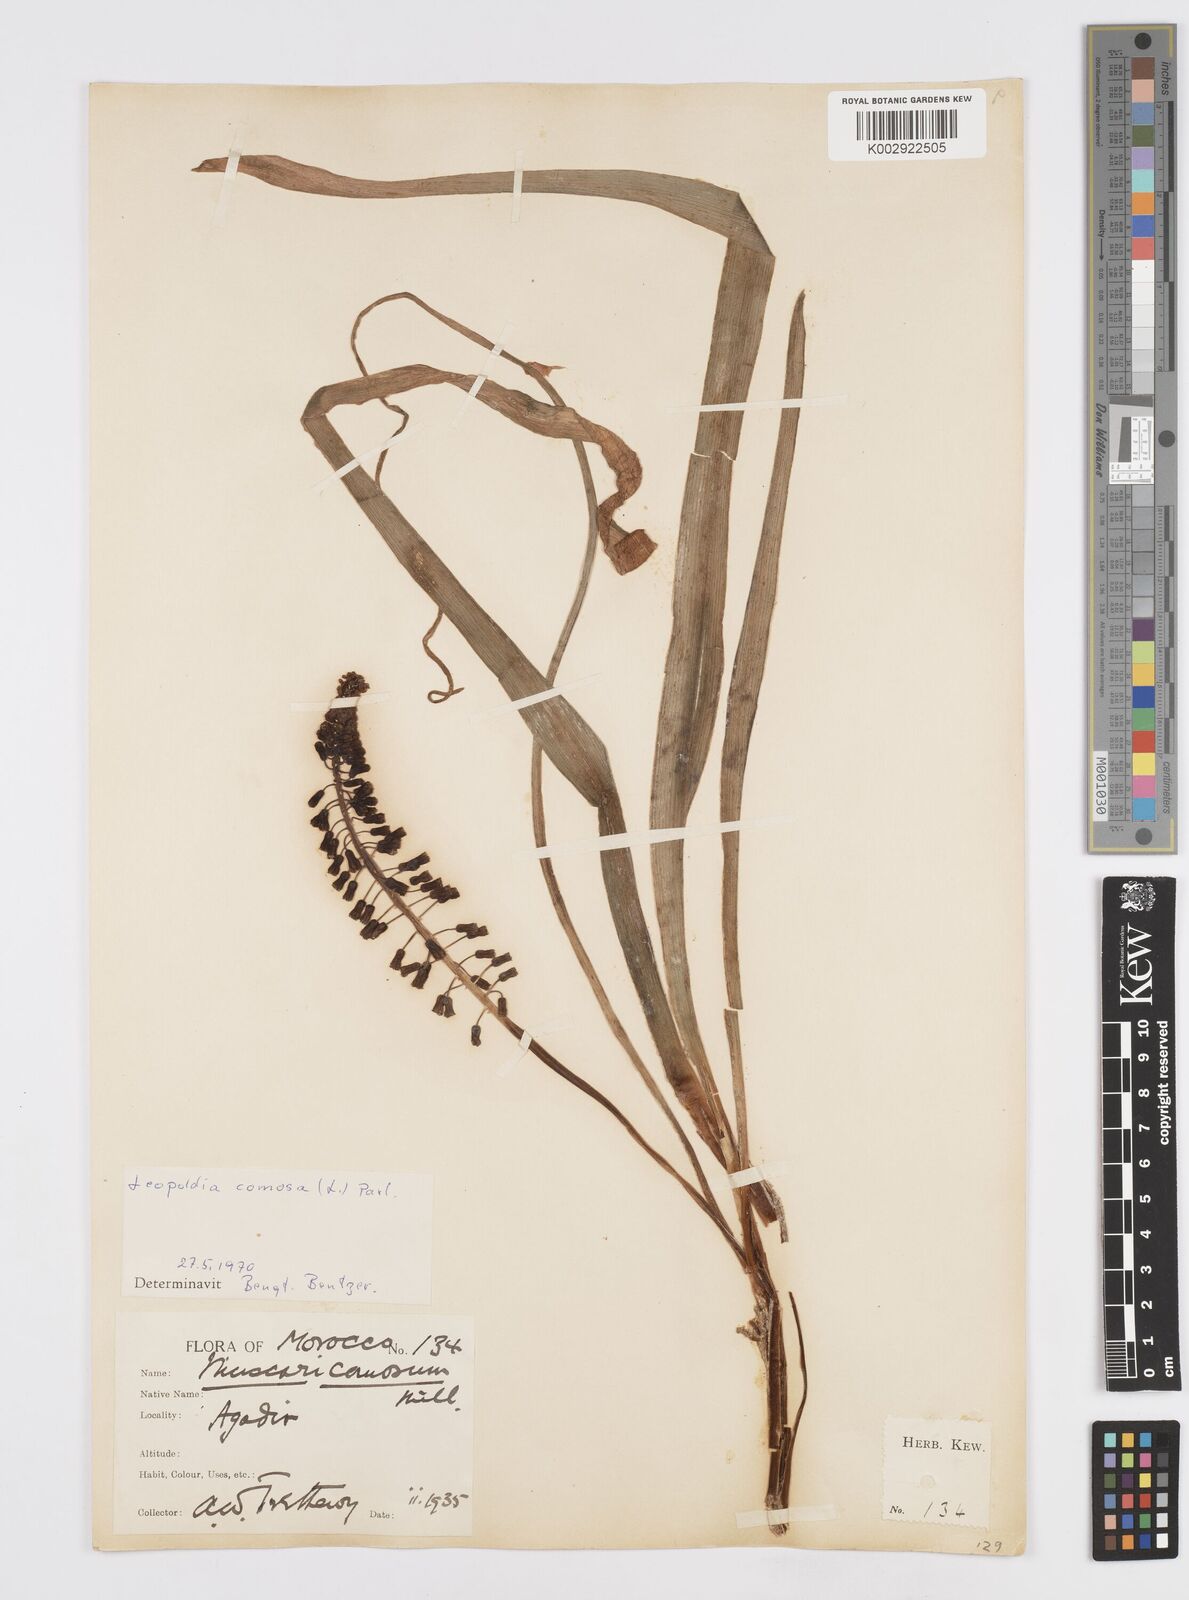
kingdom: Plantae
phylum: Tracheophyta
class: Liliopsida
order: Asparagales
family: Asparagaceae
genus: Muscari
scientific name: Muscari comosum
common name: Tassel hyacinth
